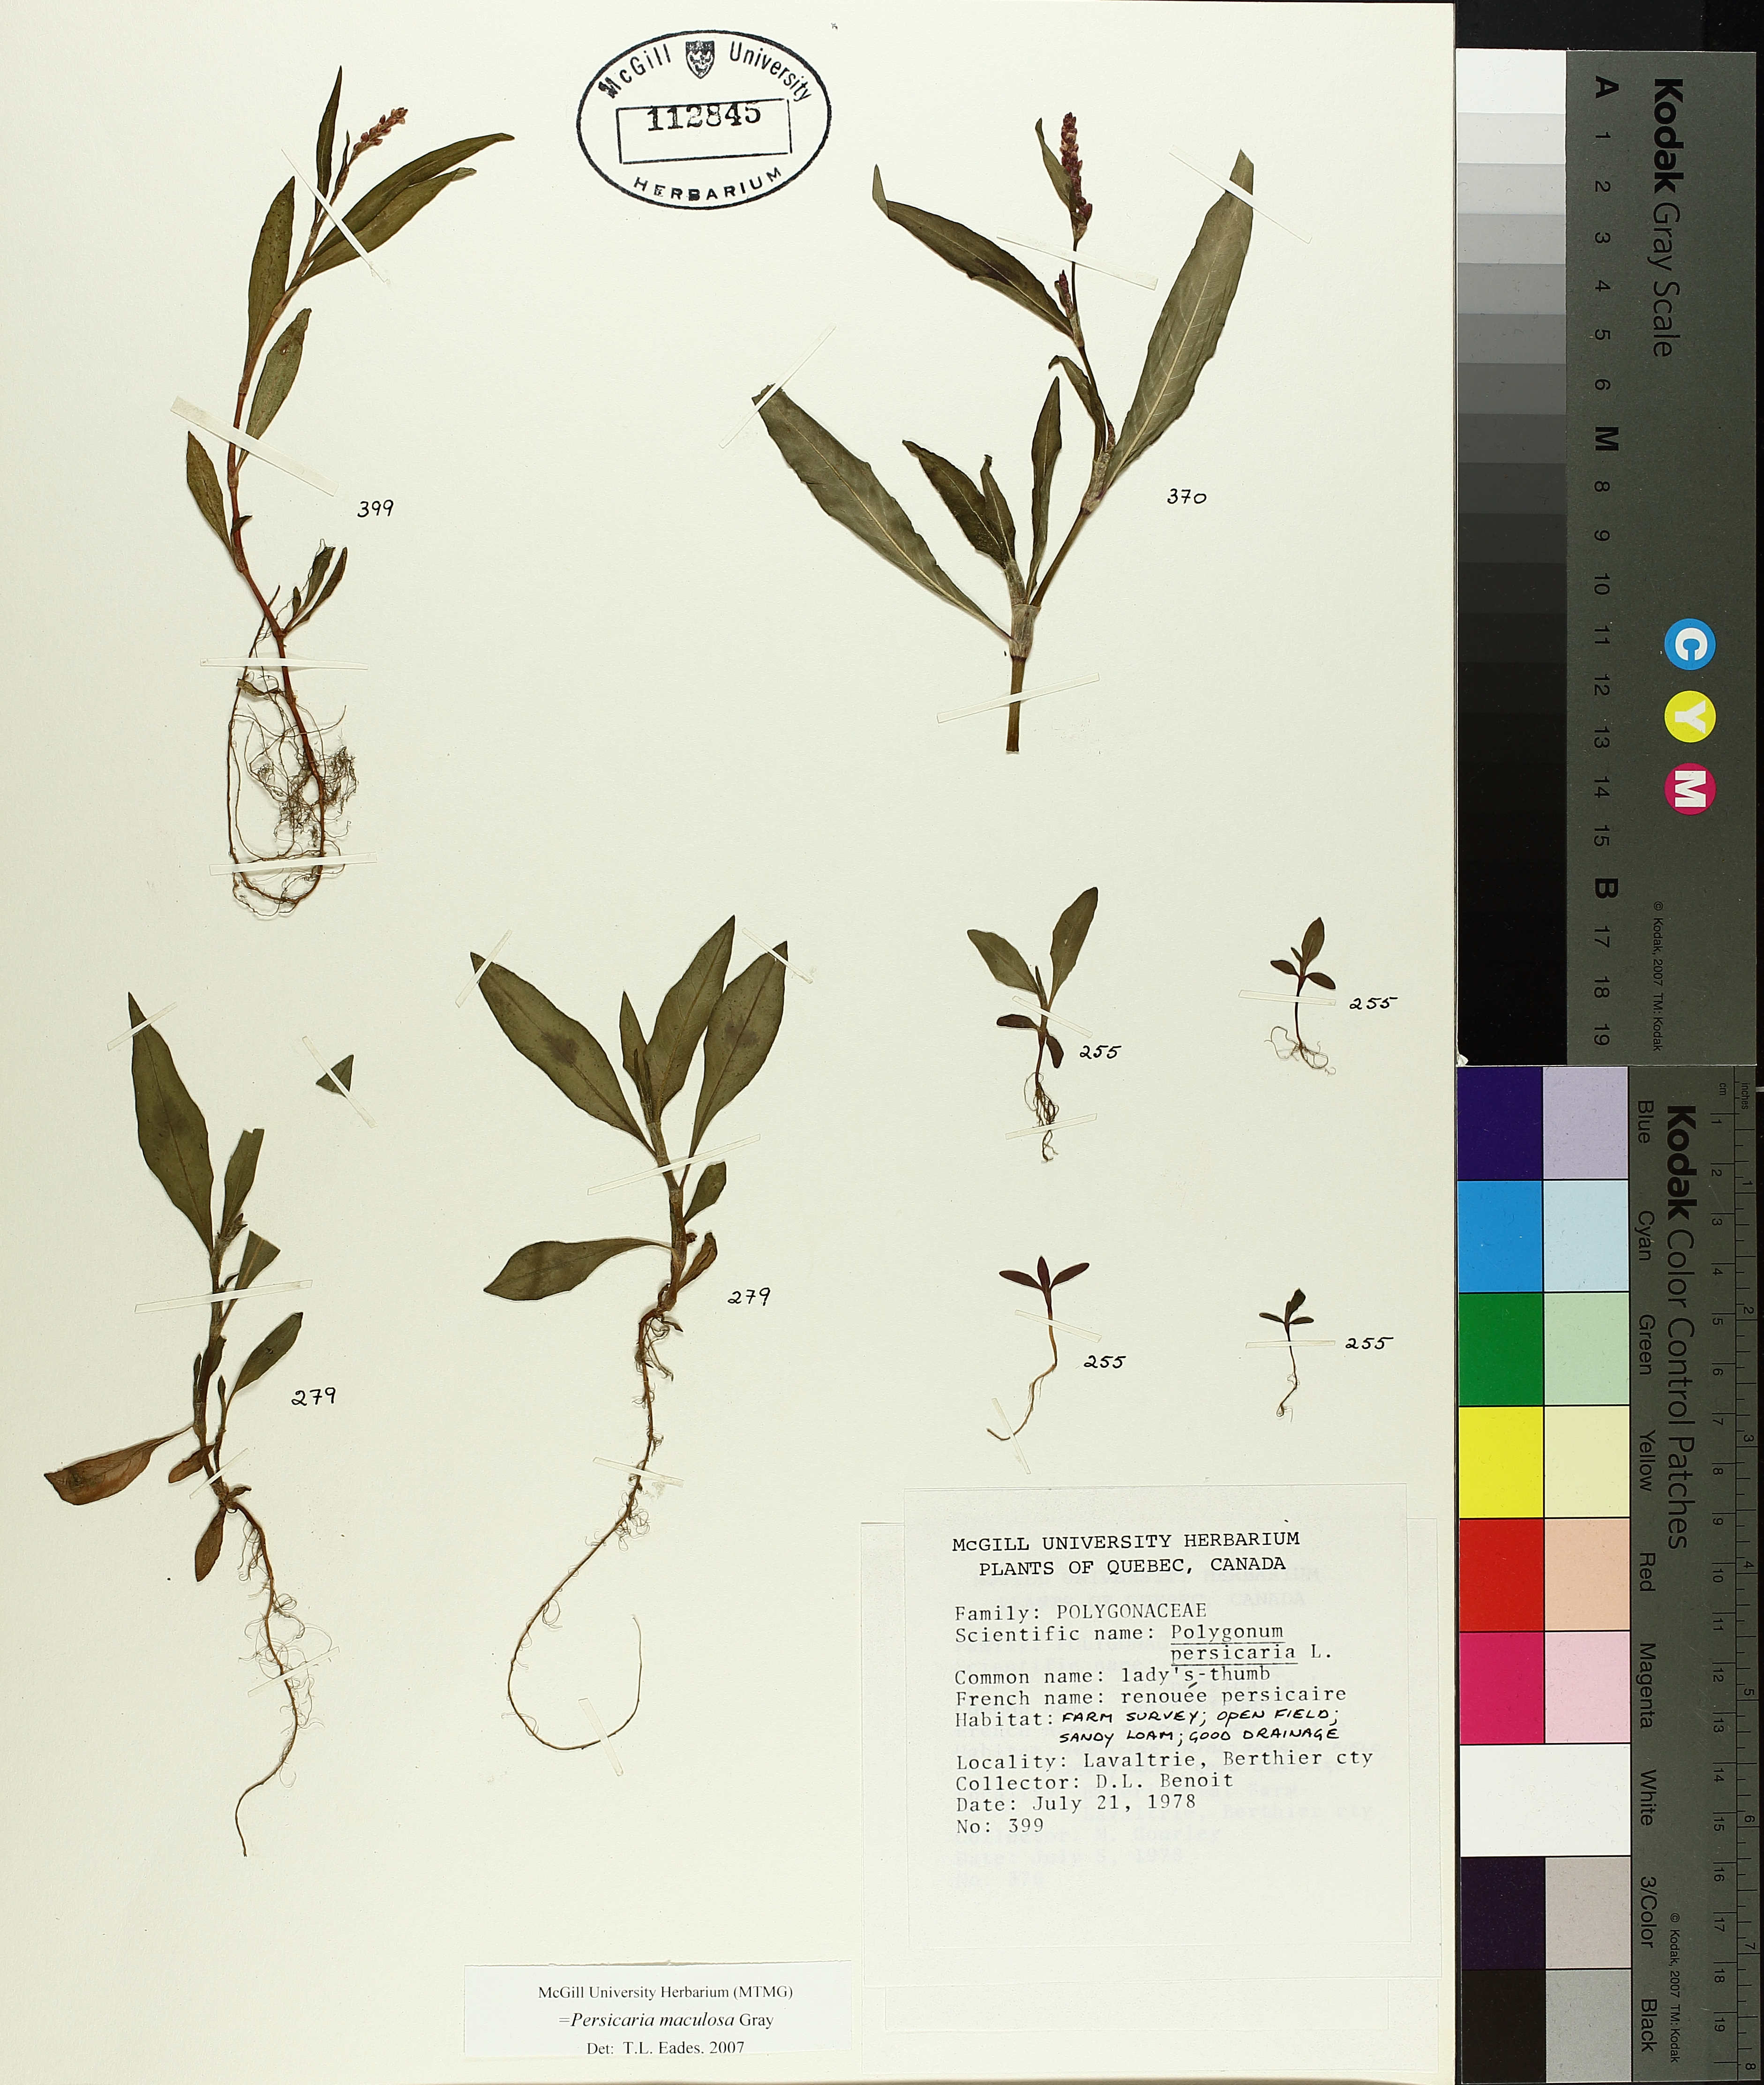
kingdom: Plantae
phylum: Tracheophyta
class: Magnoliopsida
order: Caryophyllales
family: Polygonaceae
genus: Persicaria
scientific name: Persicaria maculosa
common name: Redshank
